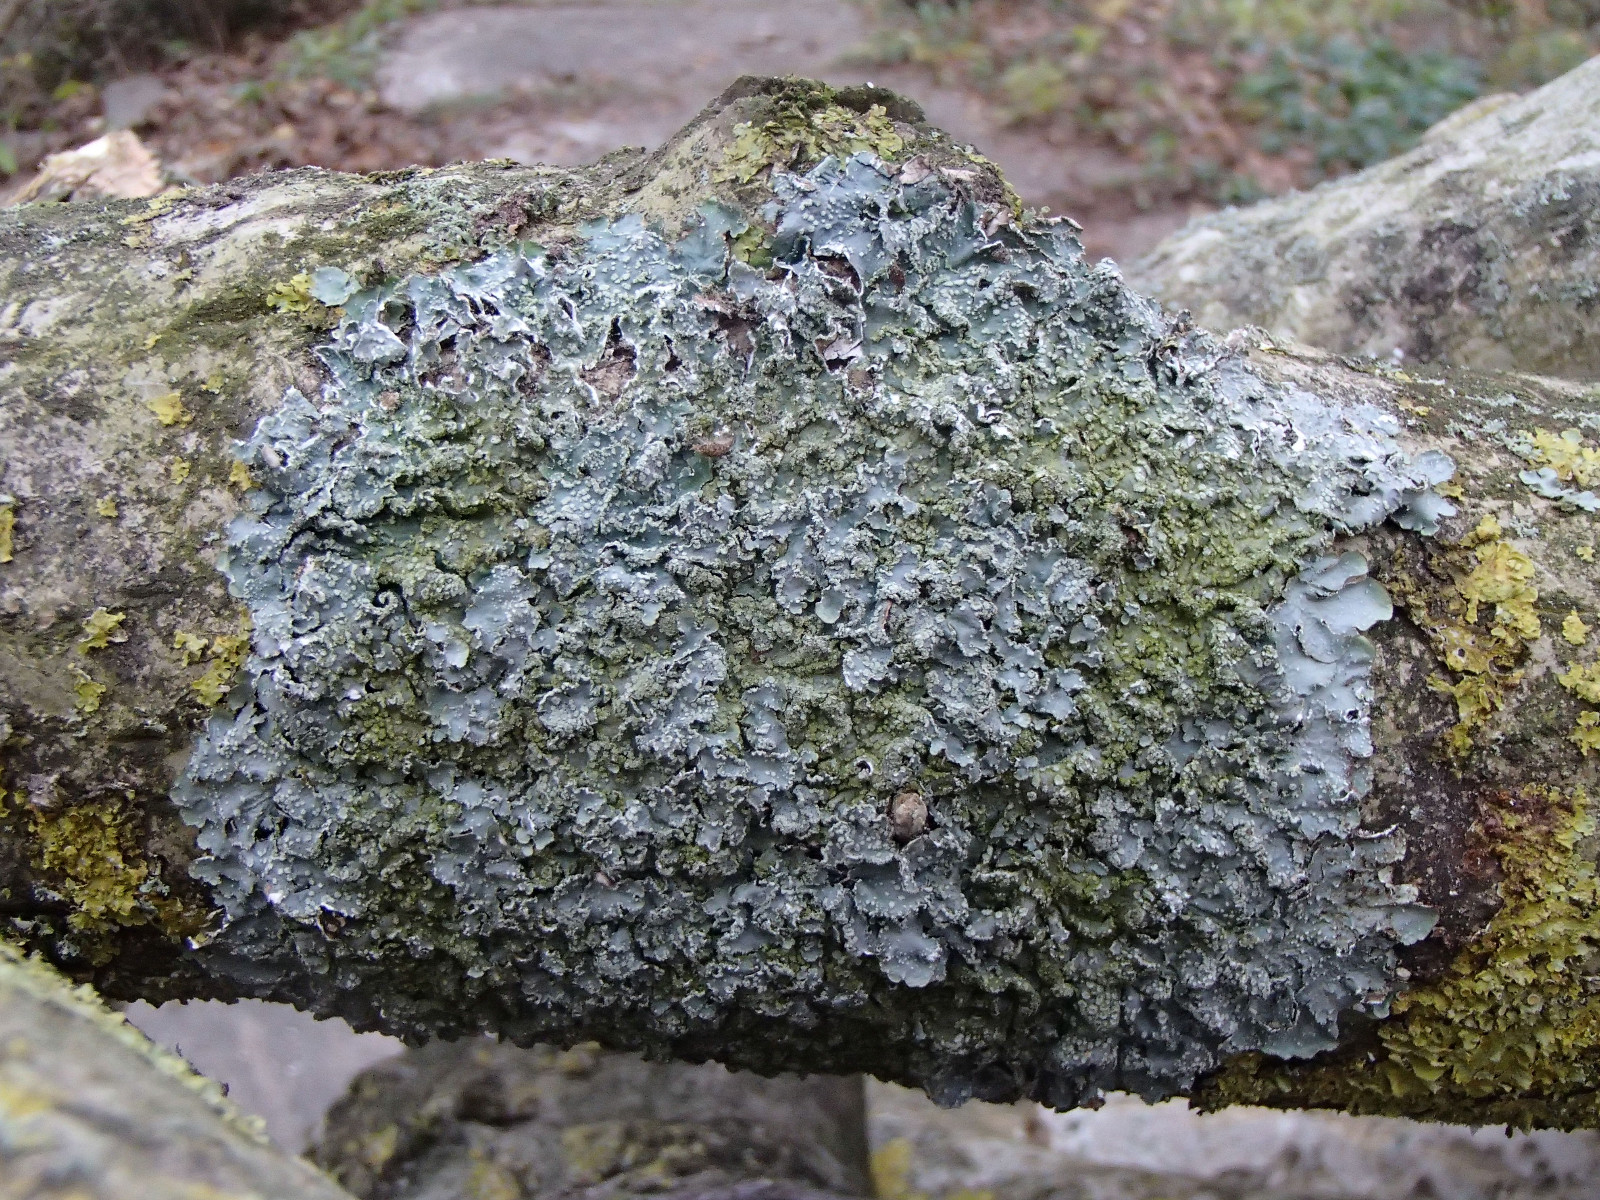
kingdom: Fungi
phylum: Ascomycota
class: Lecanoromycetes
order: Lecanorales
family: Parmeliaceae
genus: Punctelia
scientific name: Punctelia subrudecta
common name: punkt-skållav
